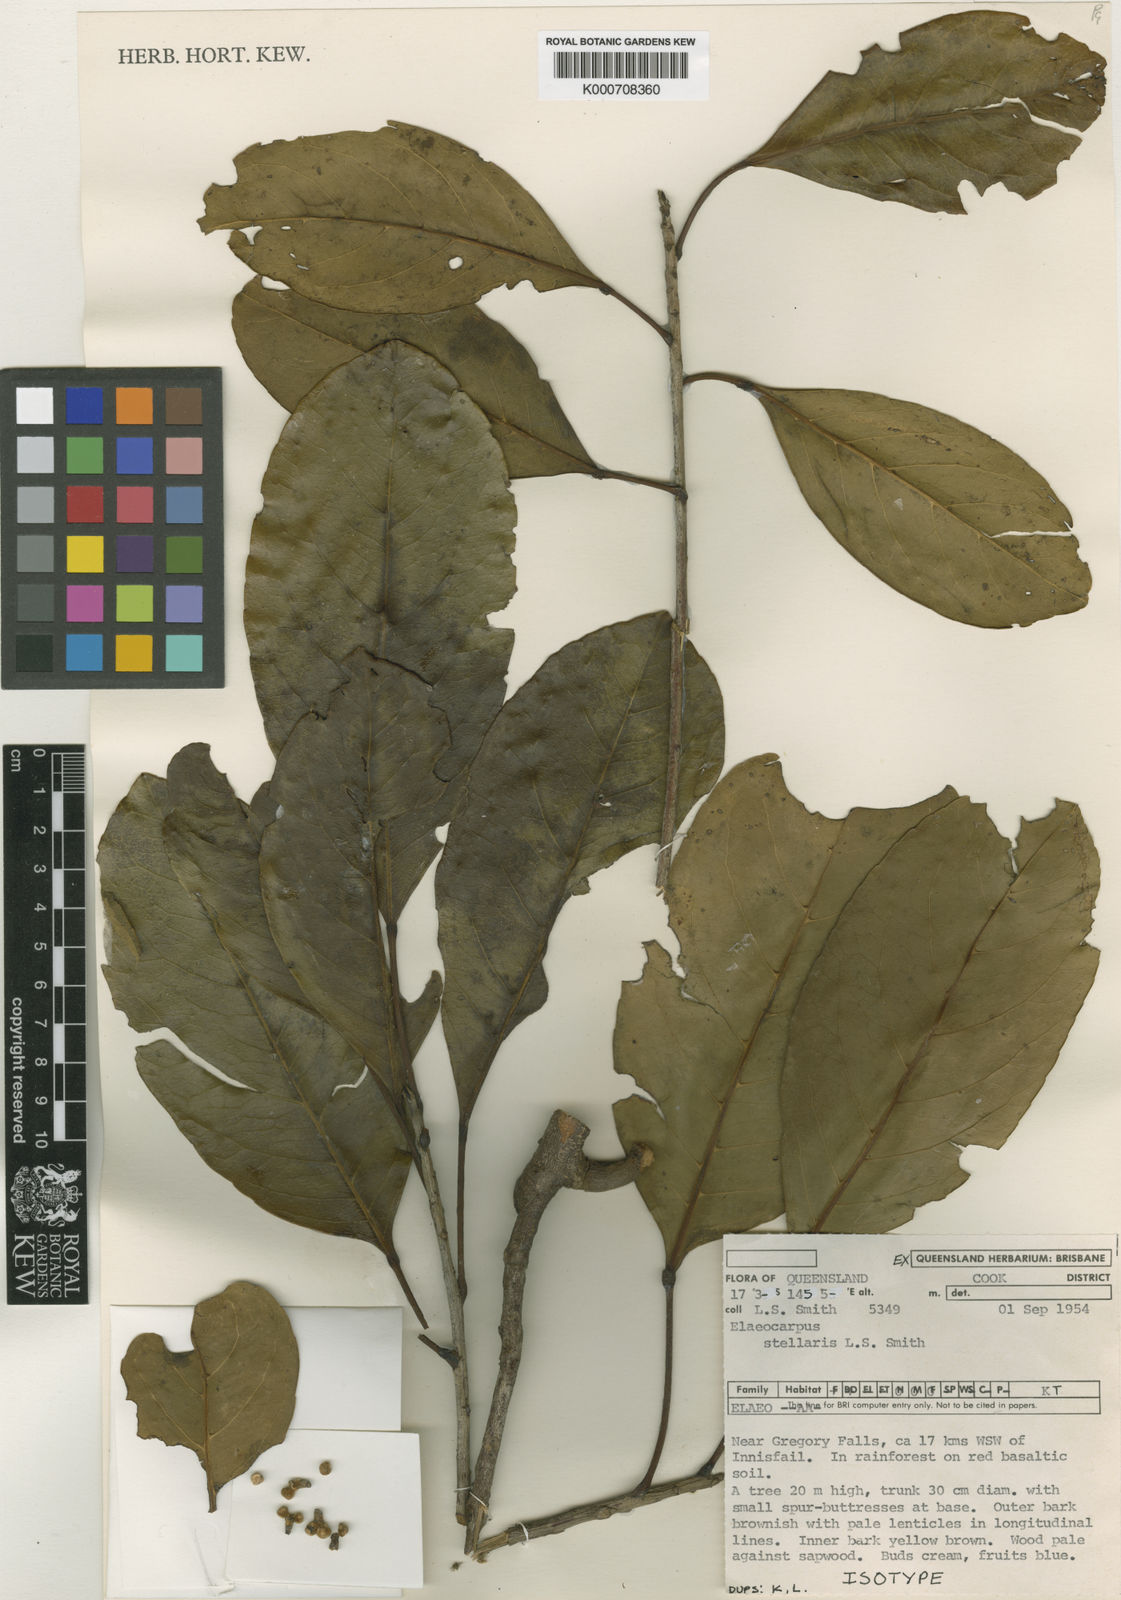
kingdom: Plantae
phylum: Tracheophyta
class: Magnoliopsida
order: Oxalidales
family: Elaeocarpaceae
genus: Elaeocarpus
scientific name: Elaeocarpus stellaris
